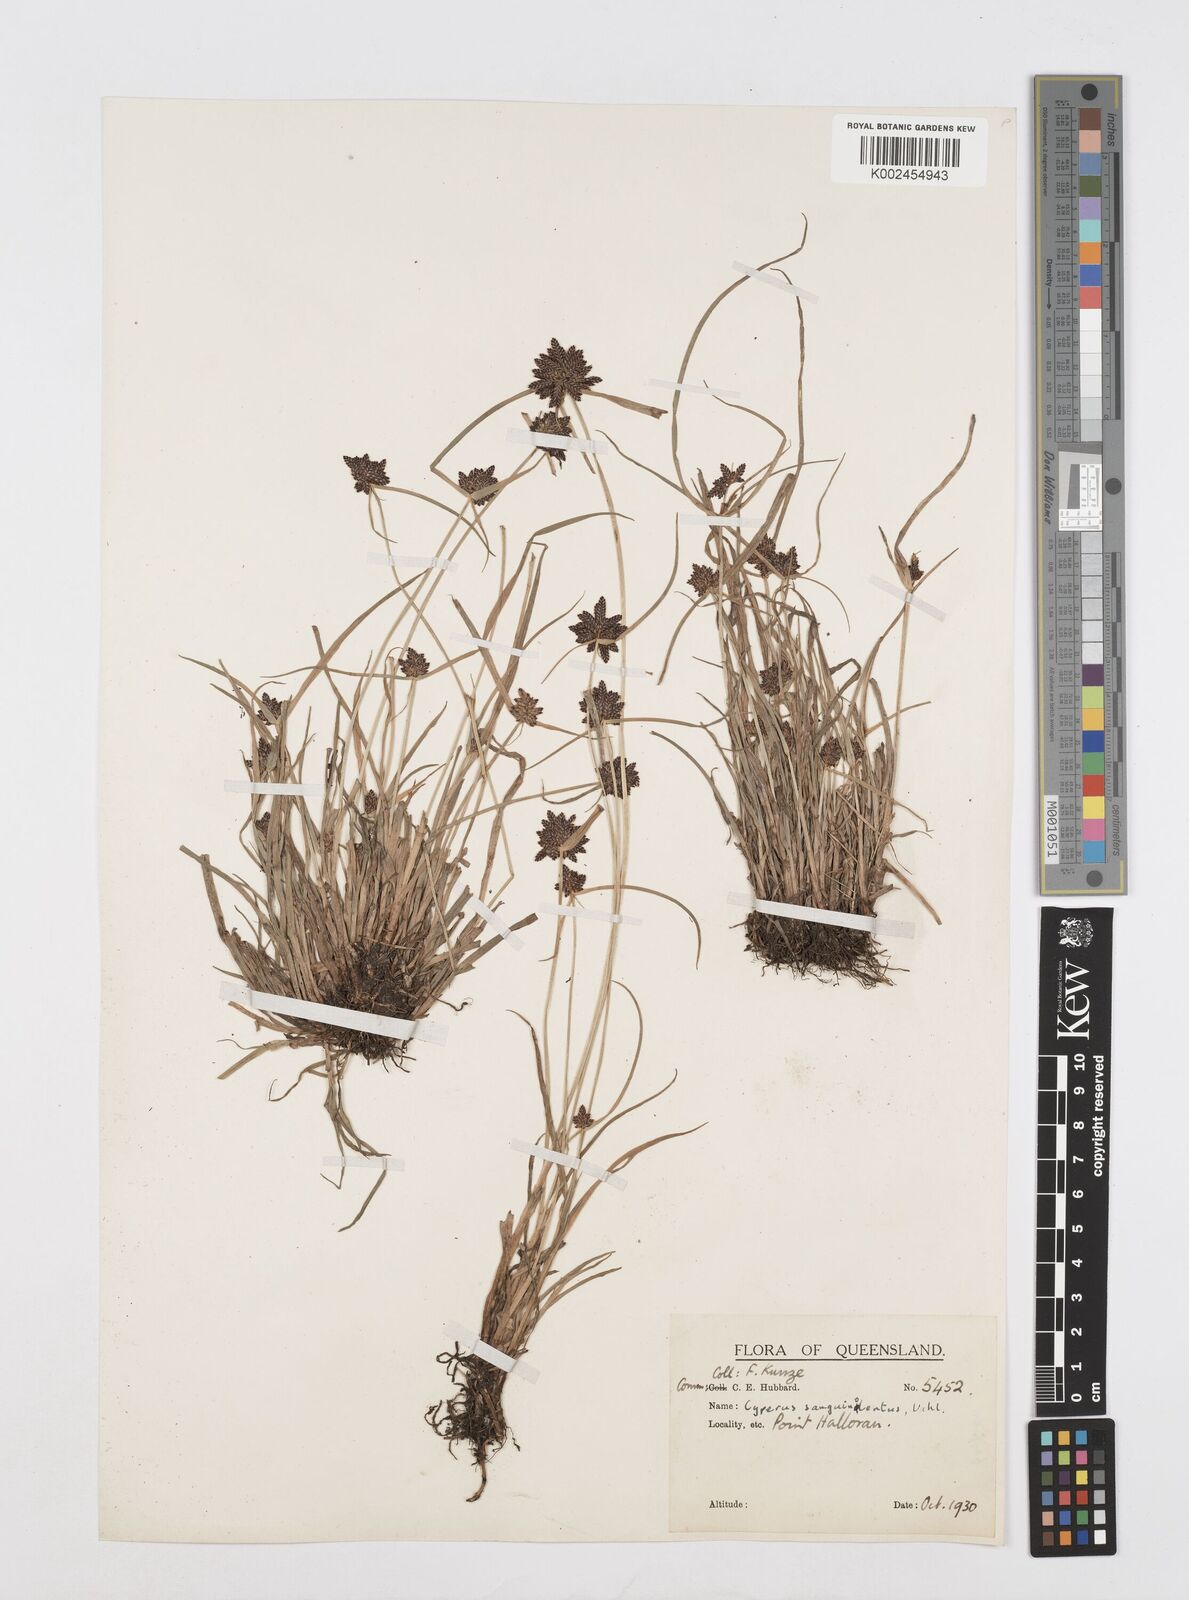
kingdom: Plantae
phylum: Tracheophyta
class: Liliopsida
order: Poales
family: Cyperaceae
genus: Cyperus
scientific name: Cyperus sanguinolentus
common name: Purpleglume flatsedge
